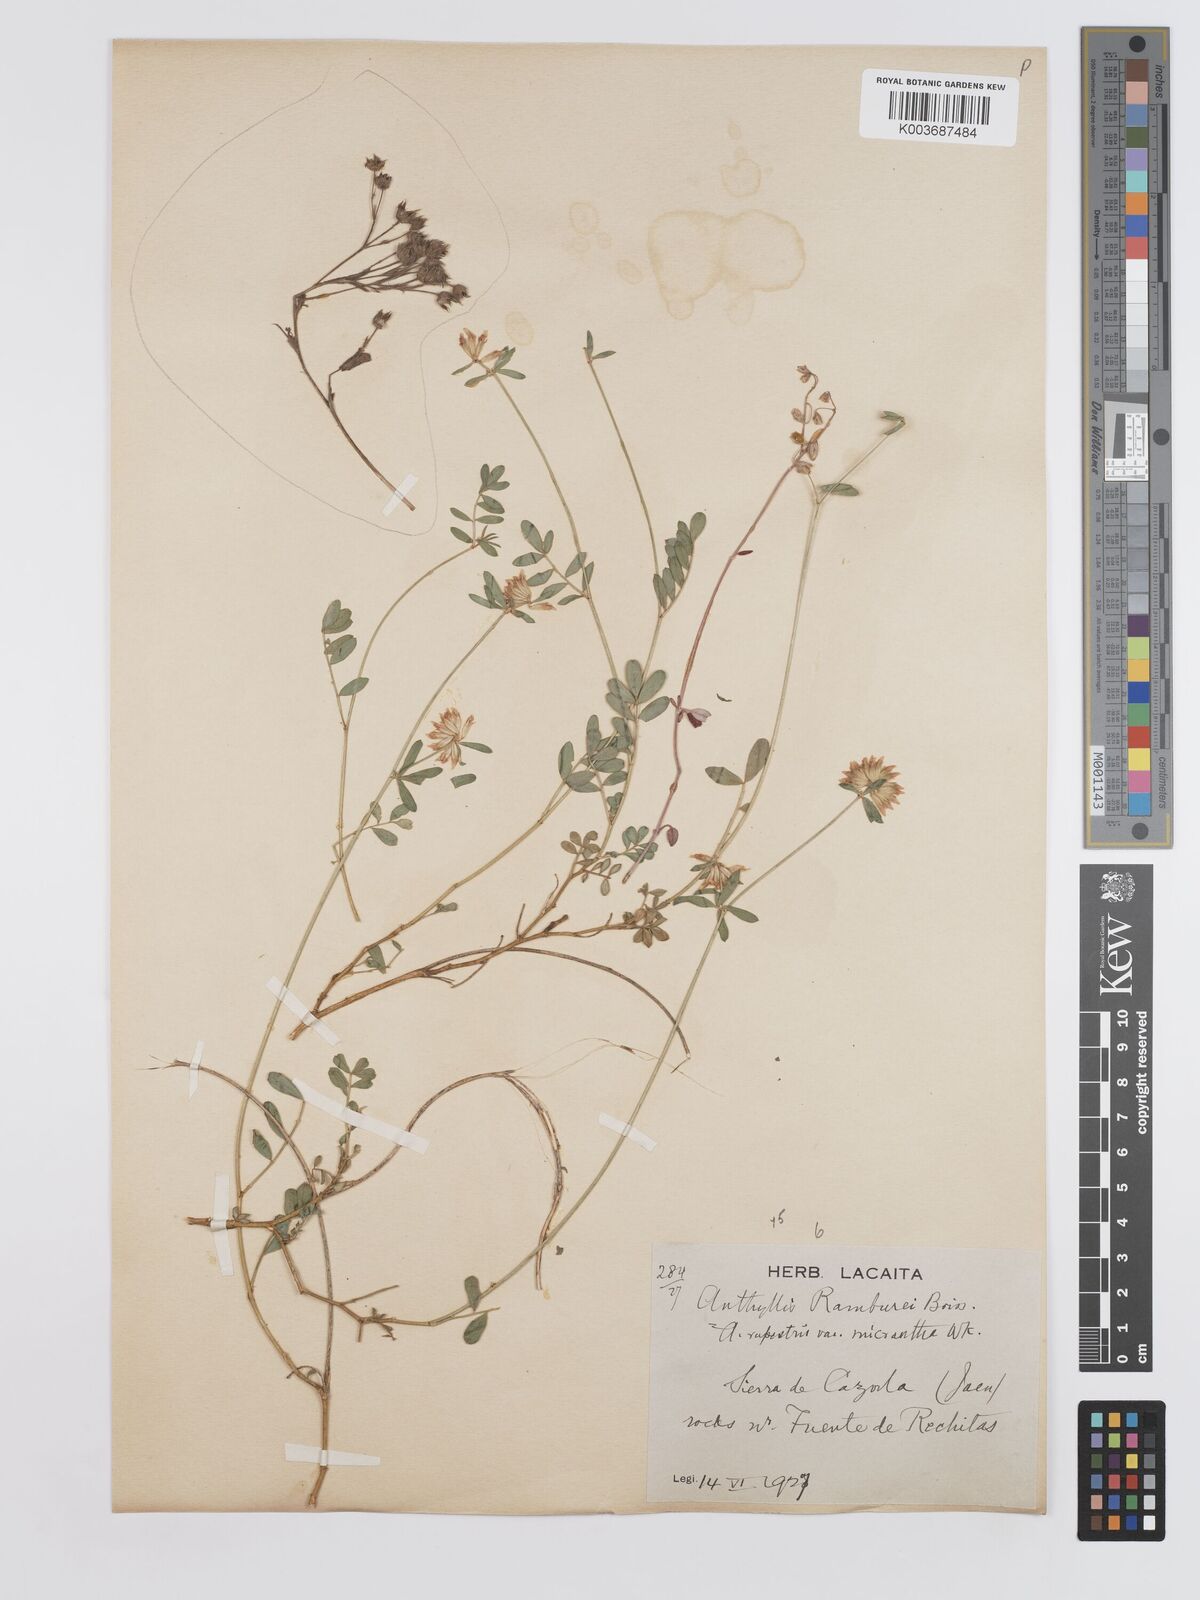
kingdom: Plantae
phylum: Tracheophyta
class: Magnoliopsida
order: Fabales
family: Fabaceae
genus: Anthyllis
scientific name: Anthyllis ramburei
